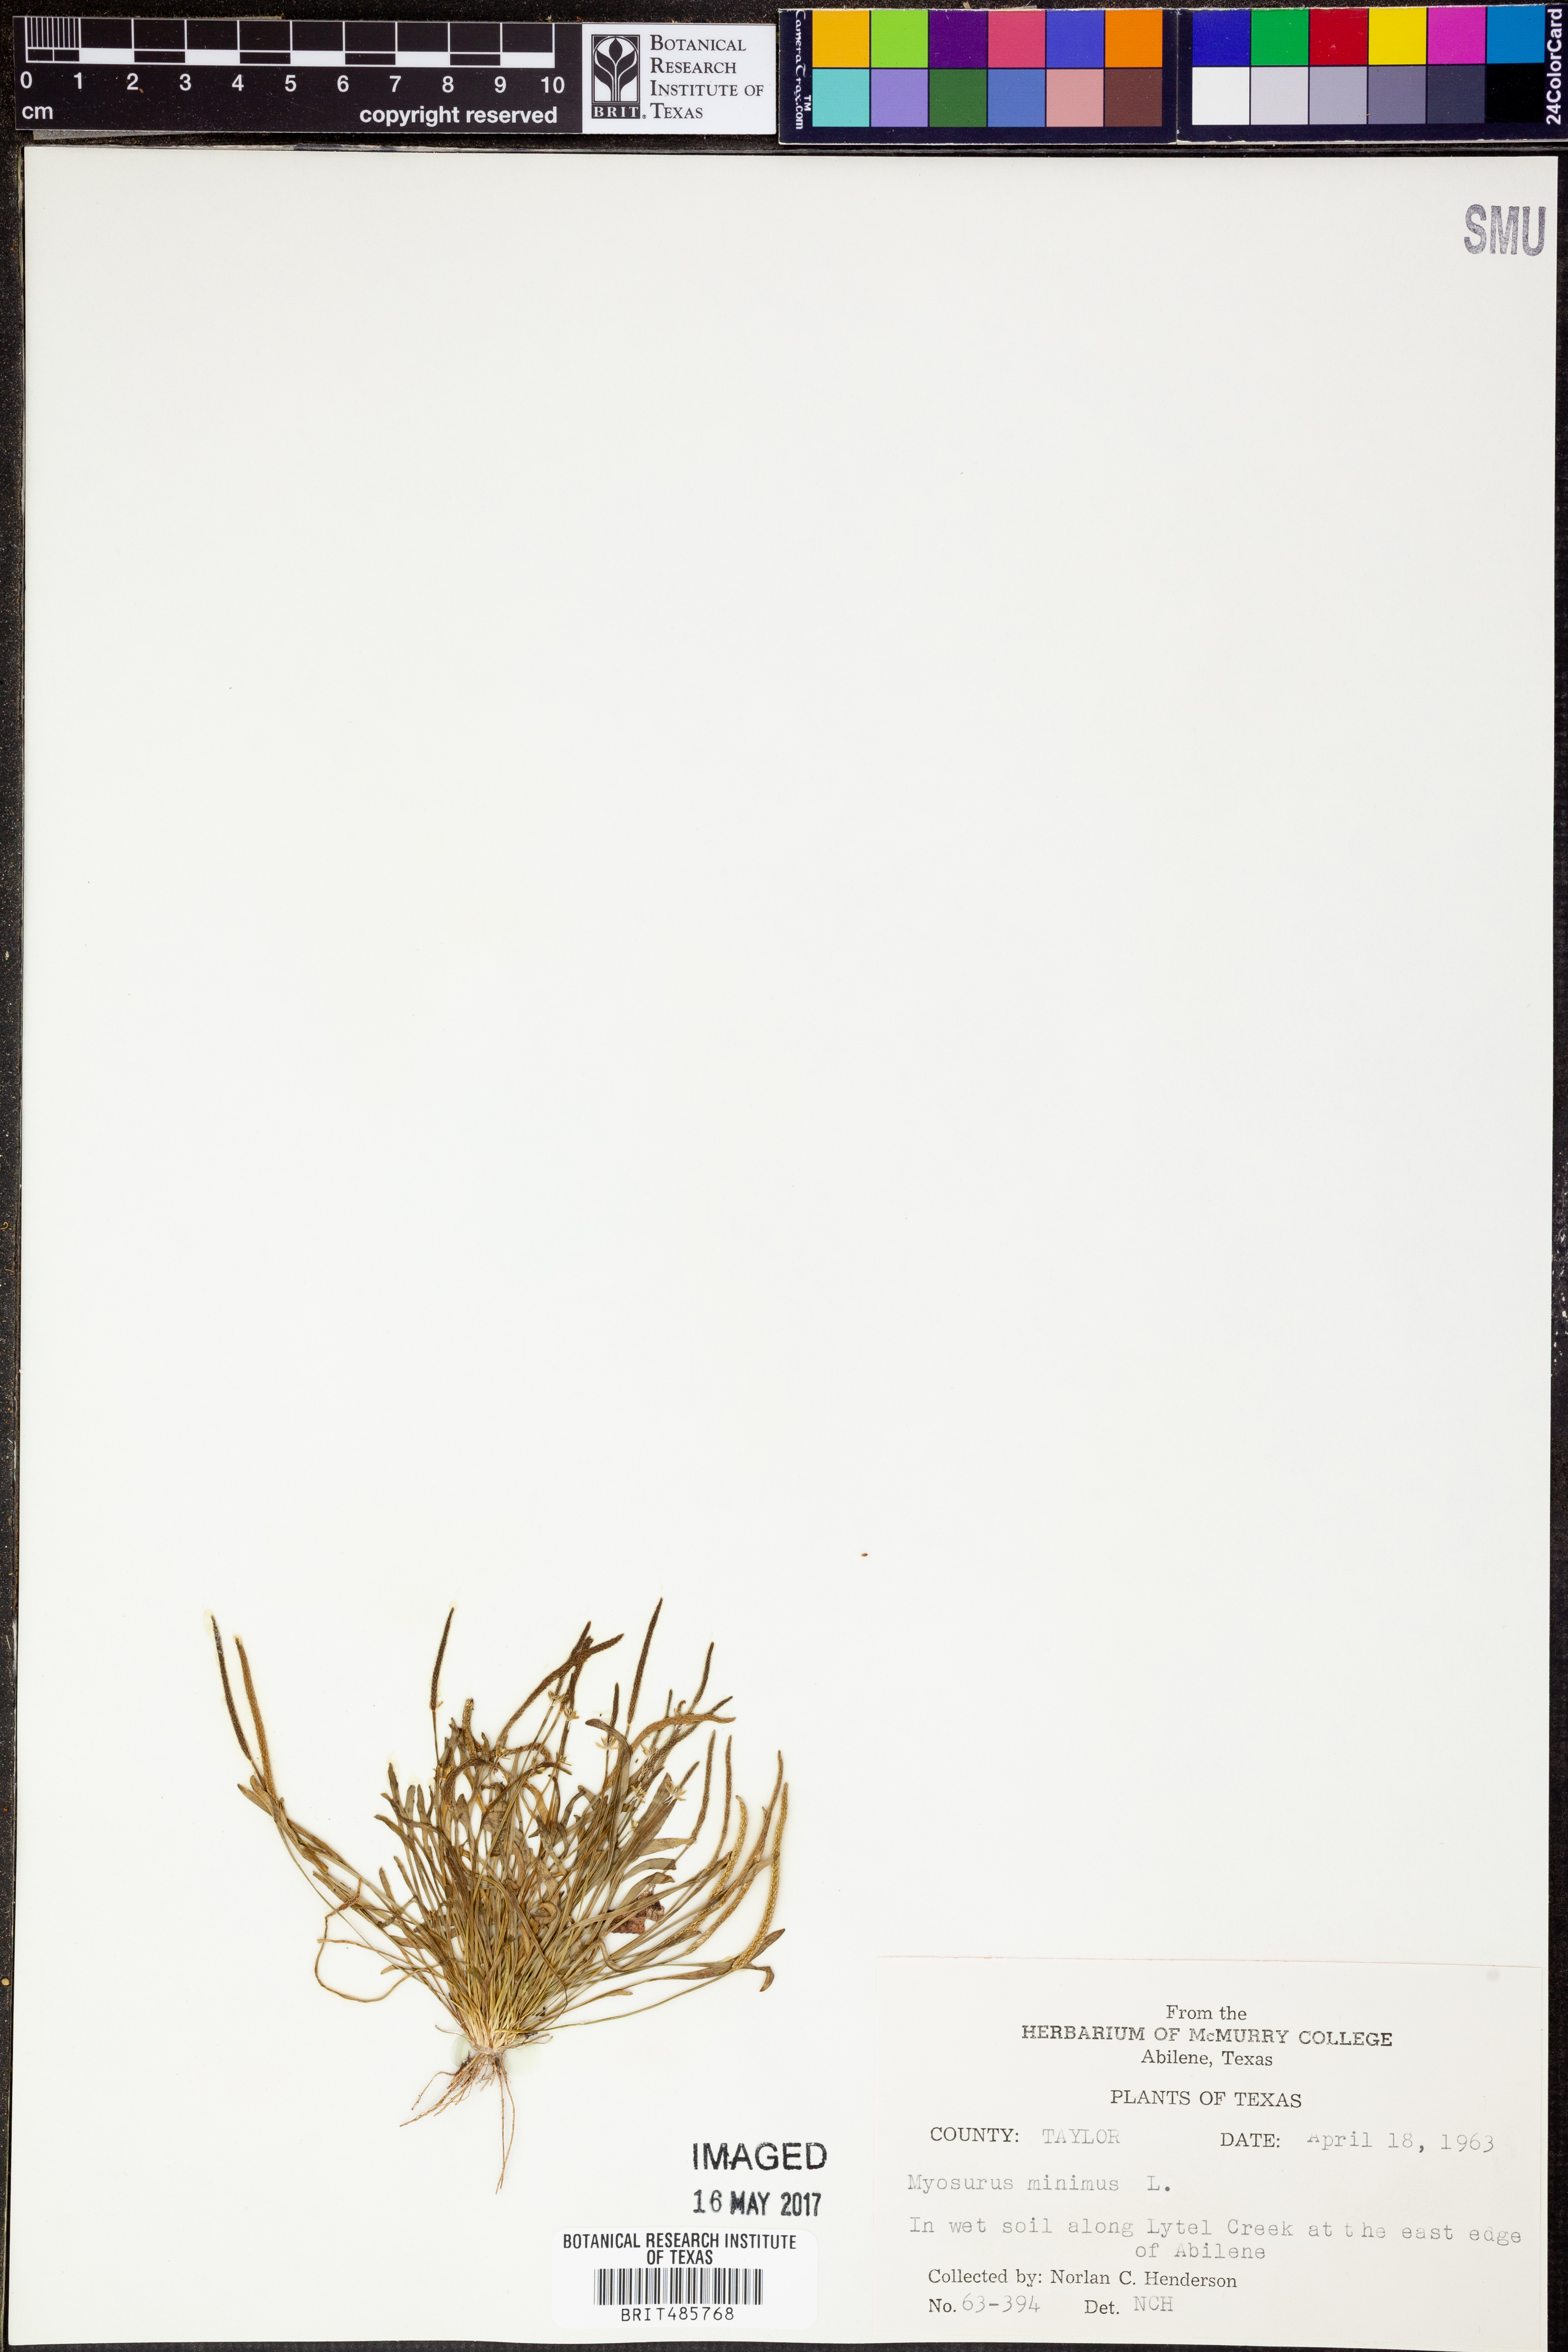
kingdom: Plantae
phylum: Tracheophyta
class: Magnoliopsida
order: Ranunculales
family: Ranunculaceae
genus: Myosurus
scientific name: Myosurus minimus
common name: Mousetail
